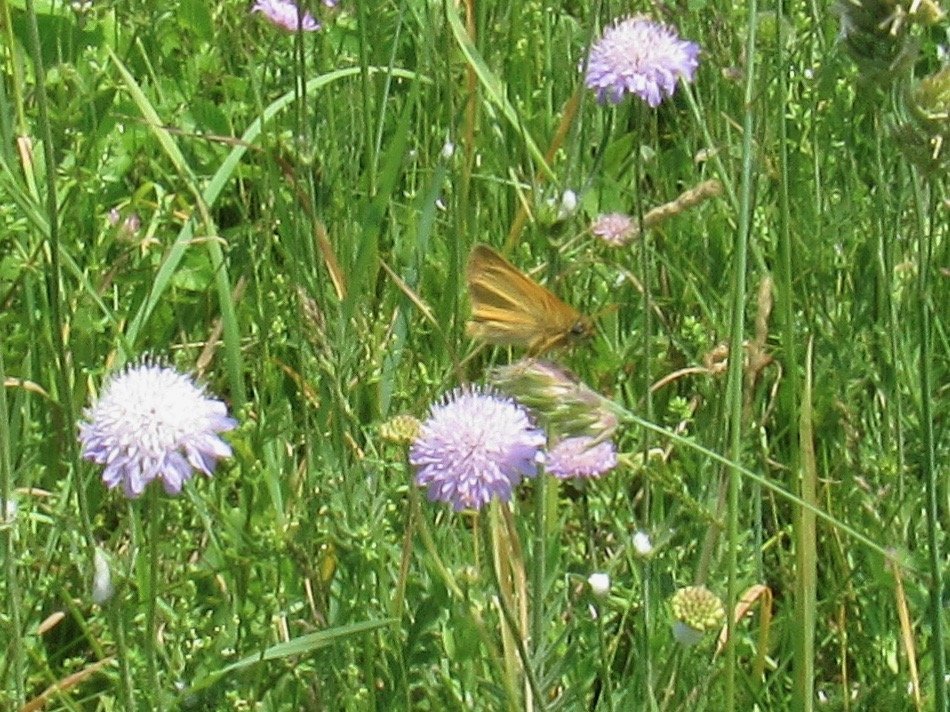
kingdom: Animalia
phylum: Arthropoda
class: Insecta
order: Lepidoptera
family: Hesperiidae
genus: Thymelicus
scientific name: Thymelicus lineola
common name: European Skipper
